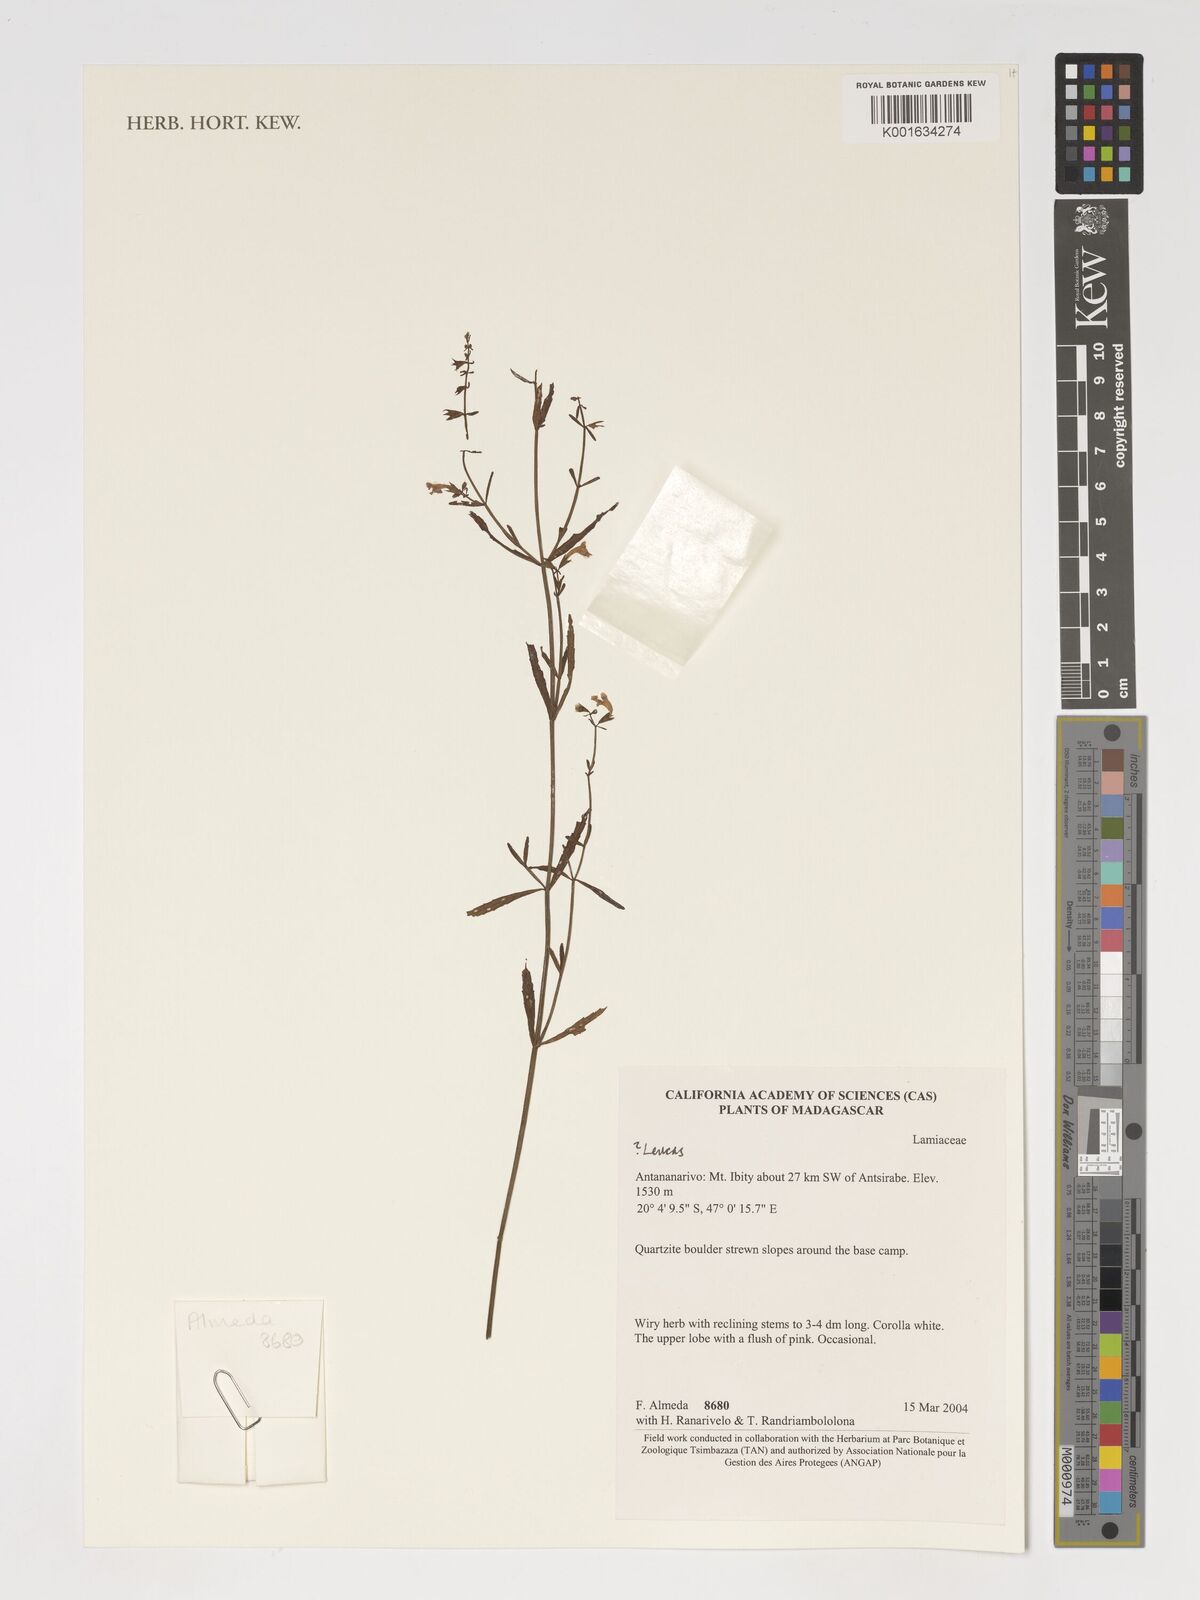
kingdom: Plantae
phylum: Tracheophyta
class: Magnoliopsida
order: Lamiales
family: Lamiaceae
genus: Leucas
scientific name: Leucas
